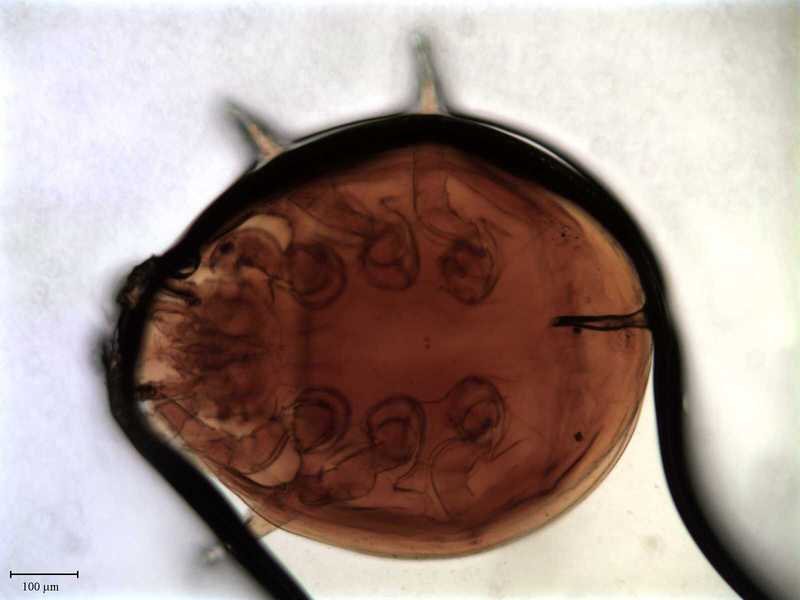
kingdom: Animalia
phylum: Arthropoda
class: Arachnida
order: Mesostigmata
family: Uroactiniidae
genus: Uroactinia
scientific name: Uroactinia hippocrepoides
